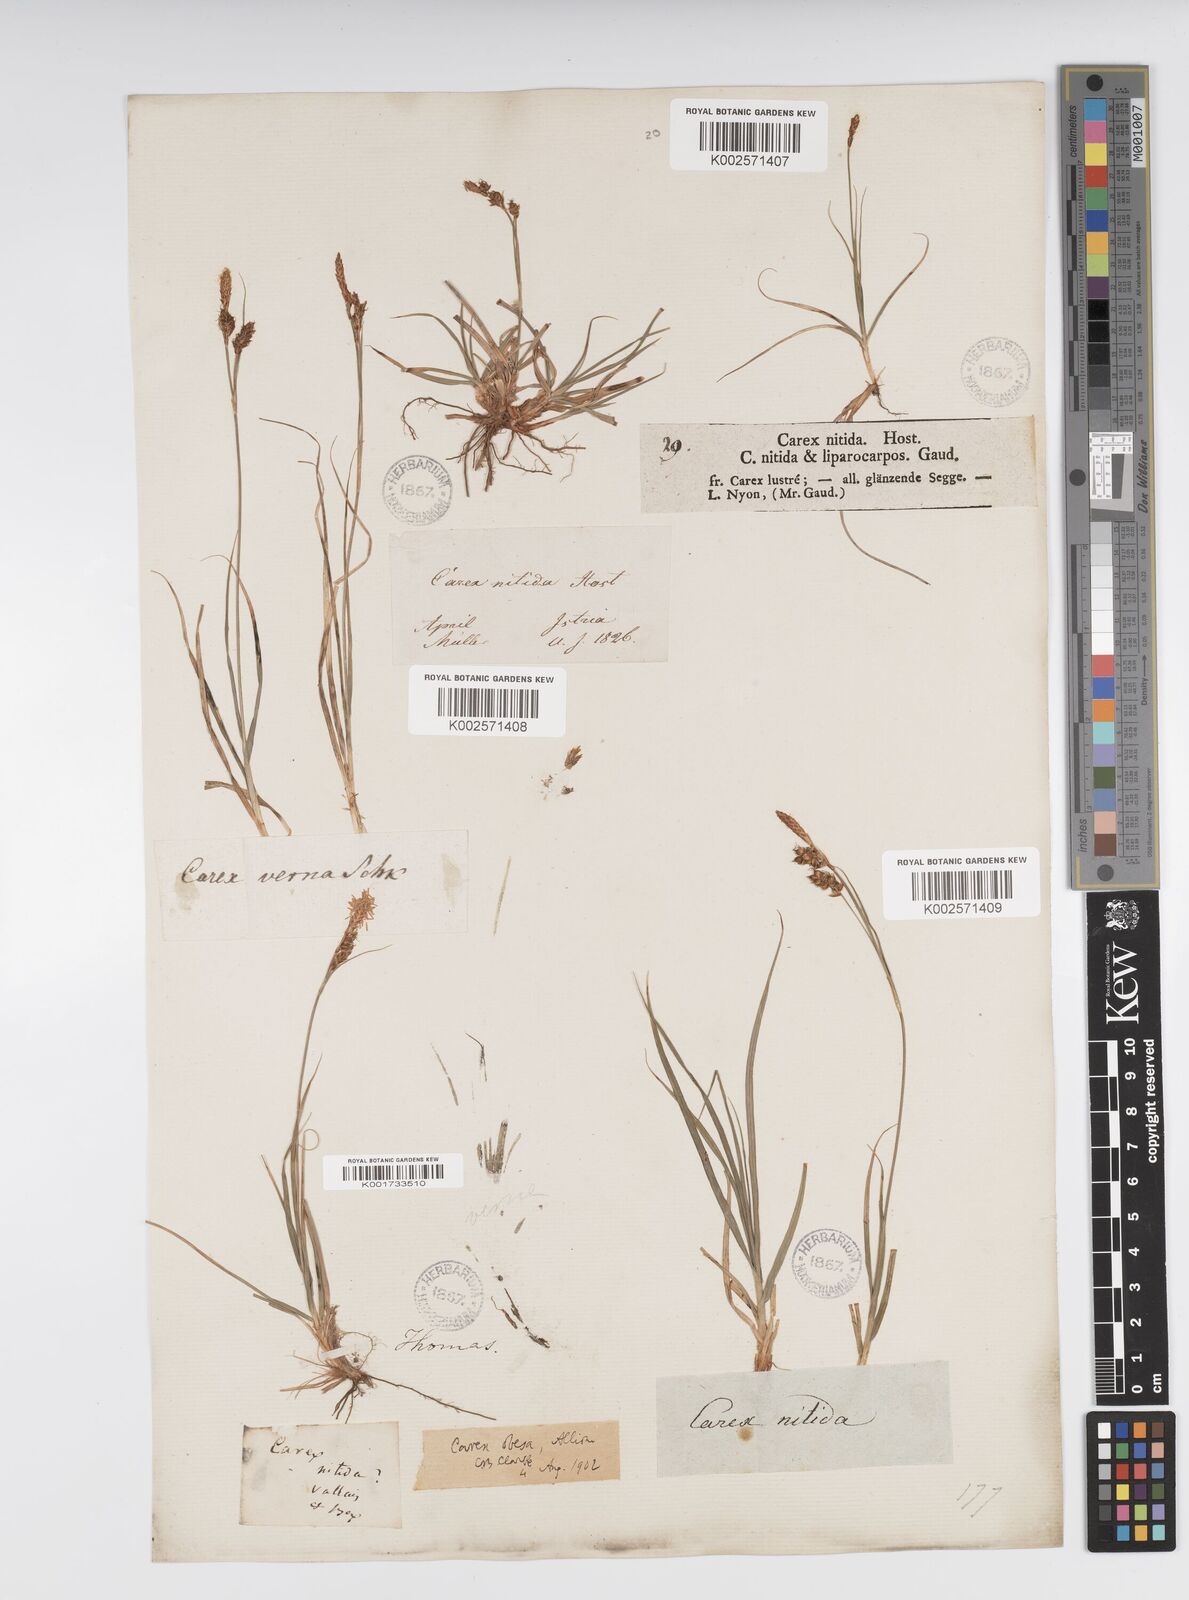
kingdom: Plantae
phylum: Tracheophyta
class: Liliopsida
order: Poales
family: Cyperaceae
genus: Carex
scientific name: Carex liparocarpos
